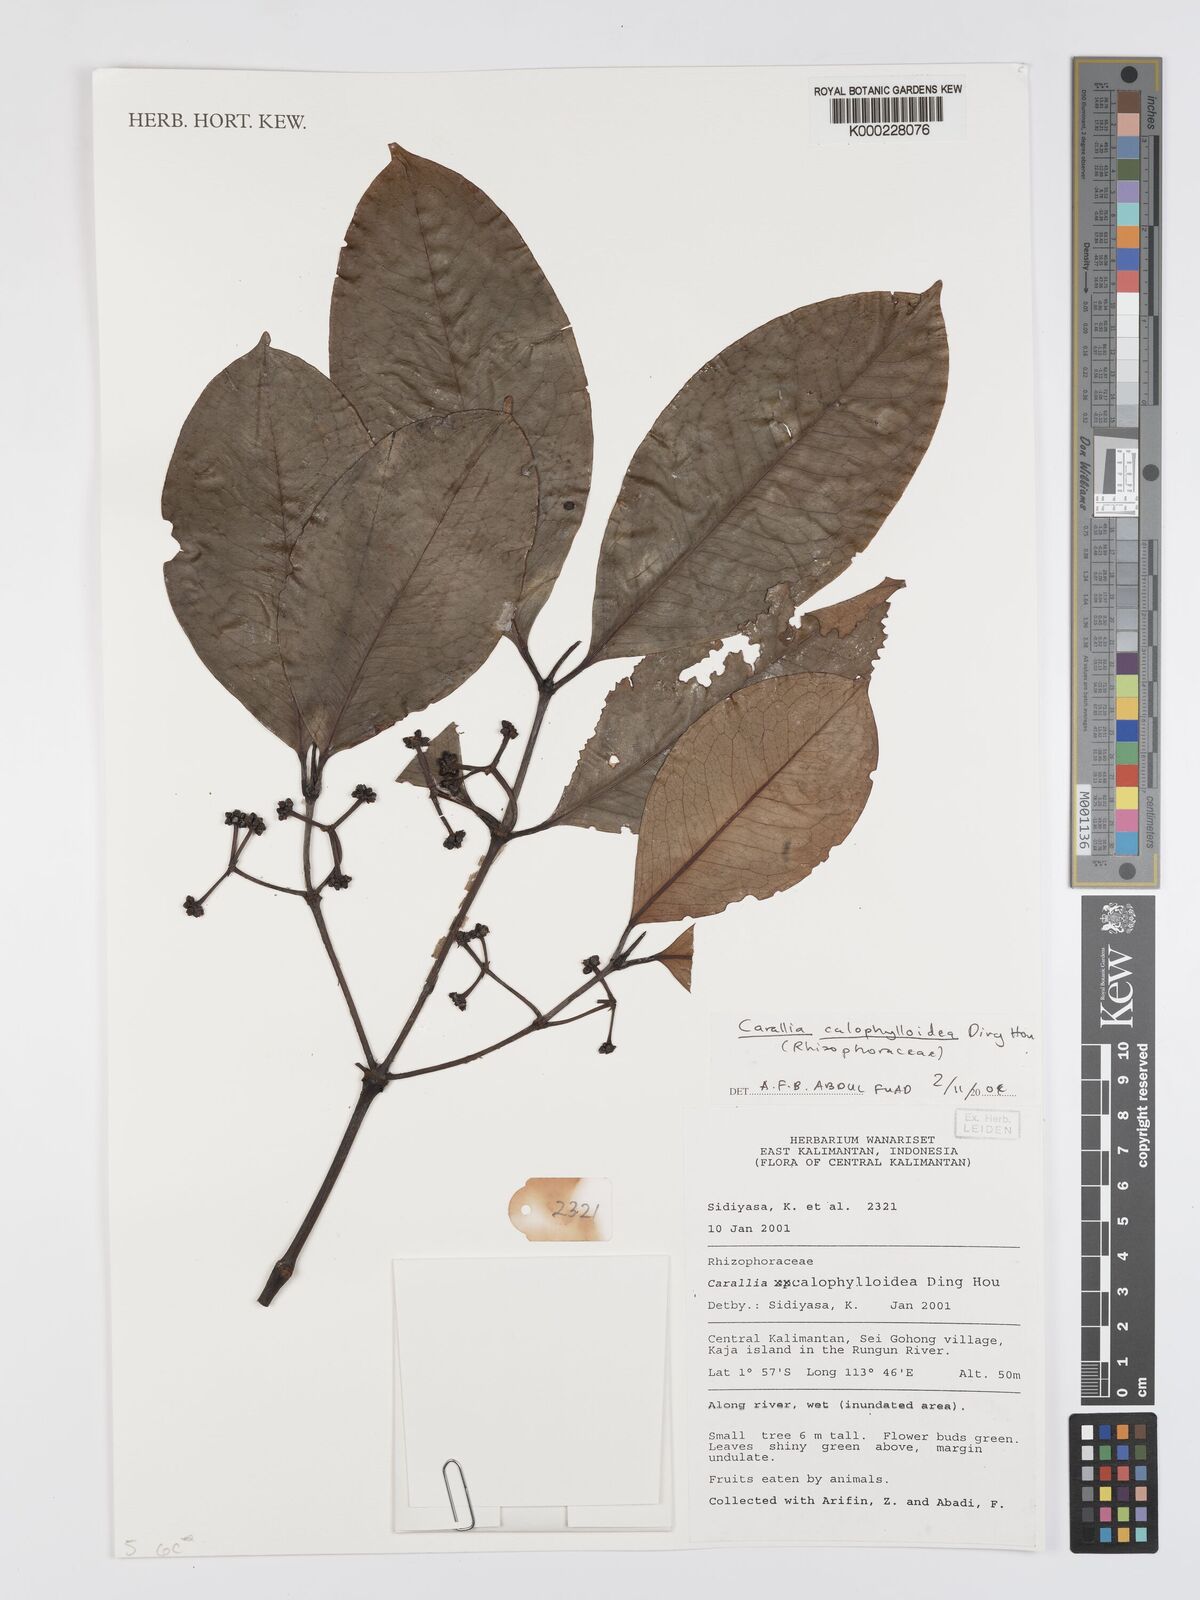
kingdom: Plantae
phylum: Tracheophyta
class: Magnoliopsida
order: Malpighiales
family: Rhizophoraceae
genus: Carallia
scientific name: Carallia calophylloidea
